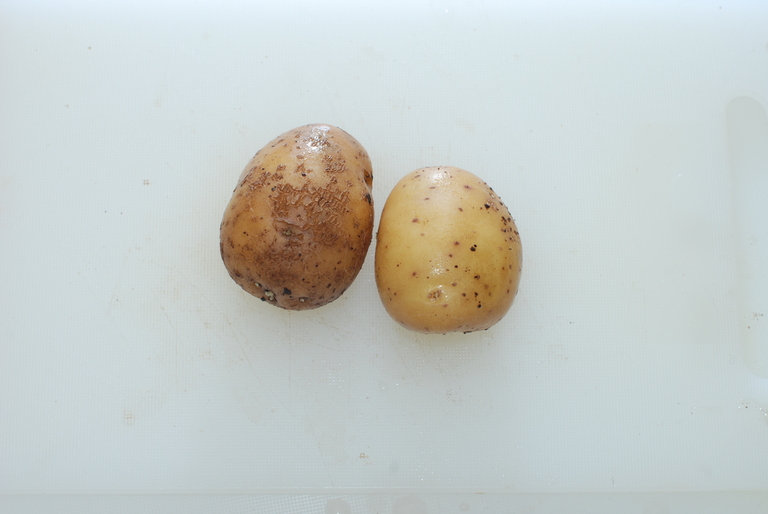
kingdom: Plantae
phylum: Tracheophyta
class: Magnoliopsida
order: Solanales
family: Solanaceae
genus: Solanum
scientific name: Solanum tuberosum
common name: Potato
